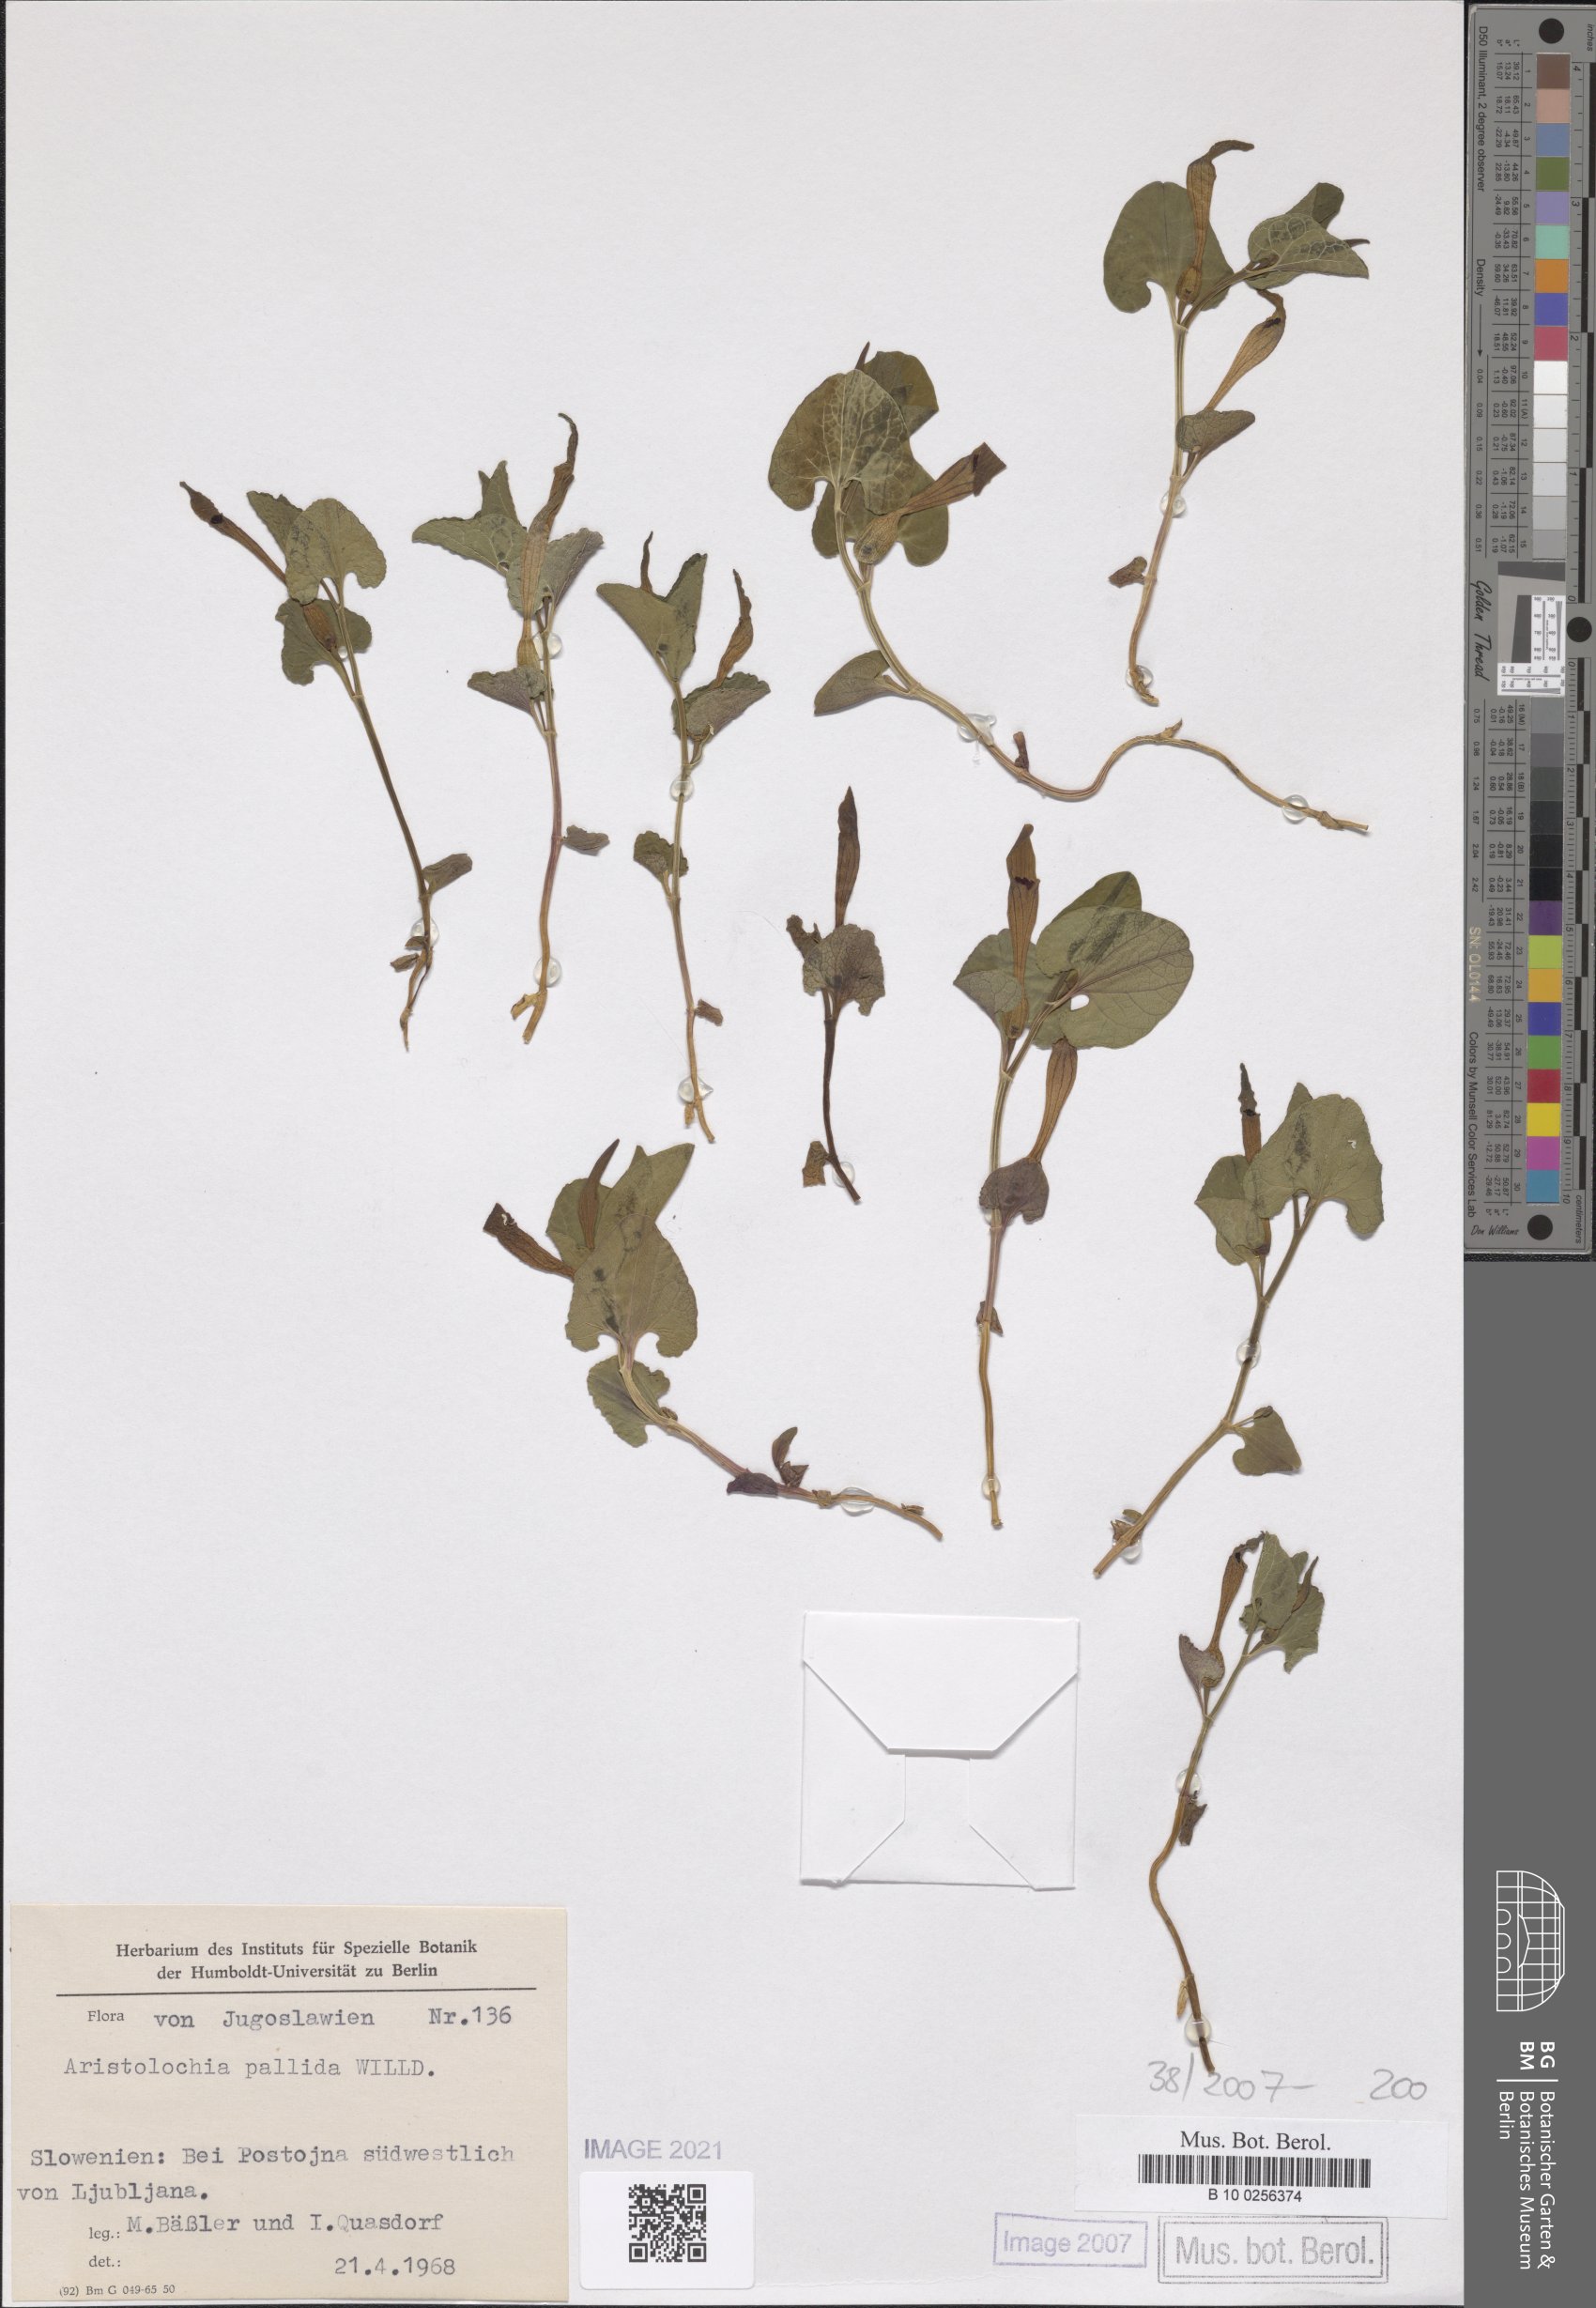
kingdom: Plantae
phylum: Tracheophyta
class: Magnoliopsida
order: Piperales
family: Aristolochiaceae
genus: Aristolochia
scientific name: Aristolochia pallida
